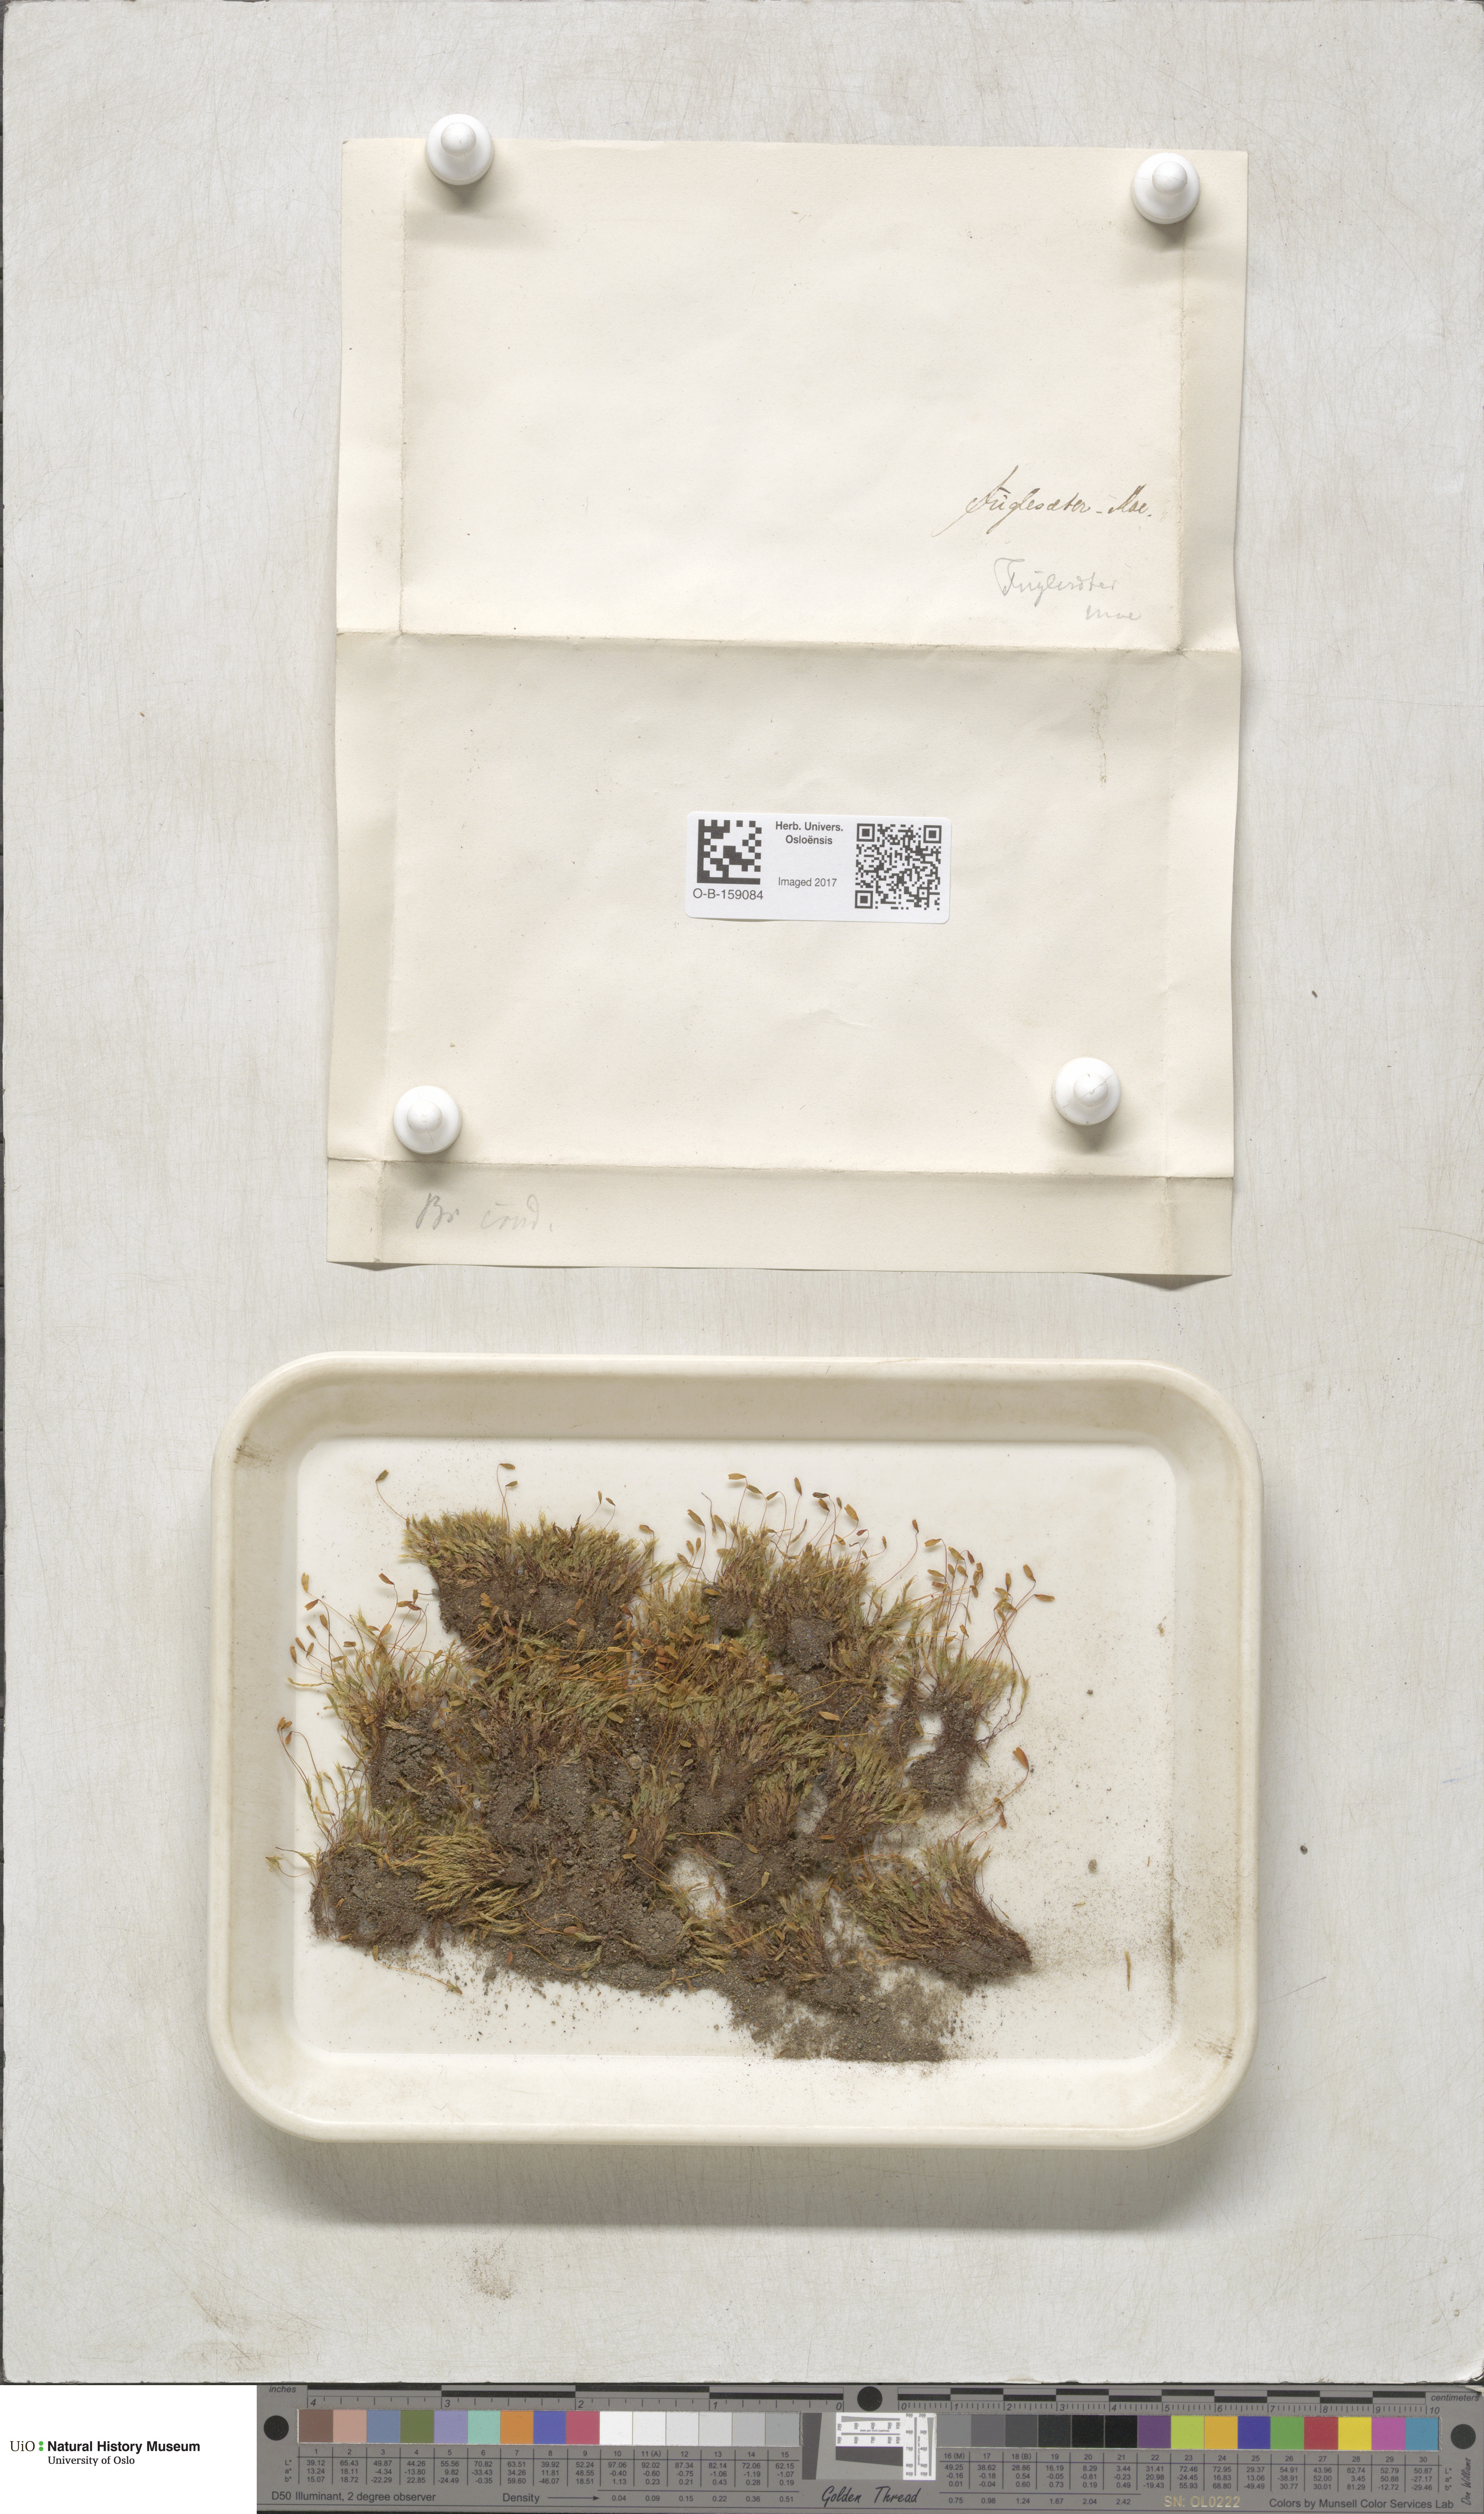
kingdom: Plantae
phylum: Bryophyta
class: Bryopsida
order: Bryales
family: Mniaceae
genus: Pohlia
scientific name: Pohlia cruda
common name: Opal nodding moss
